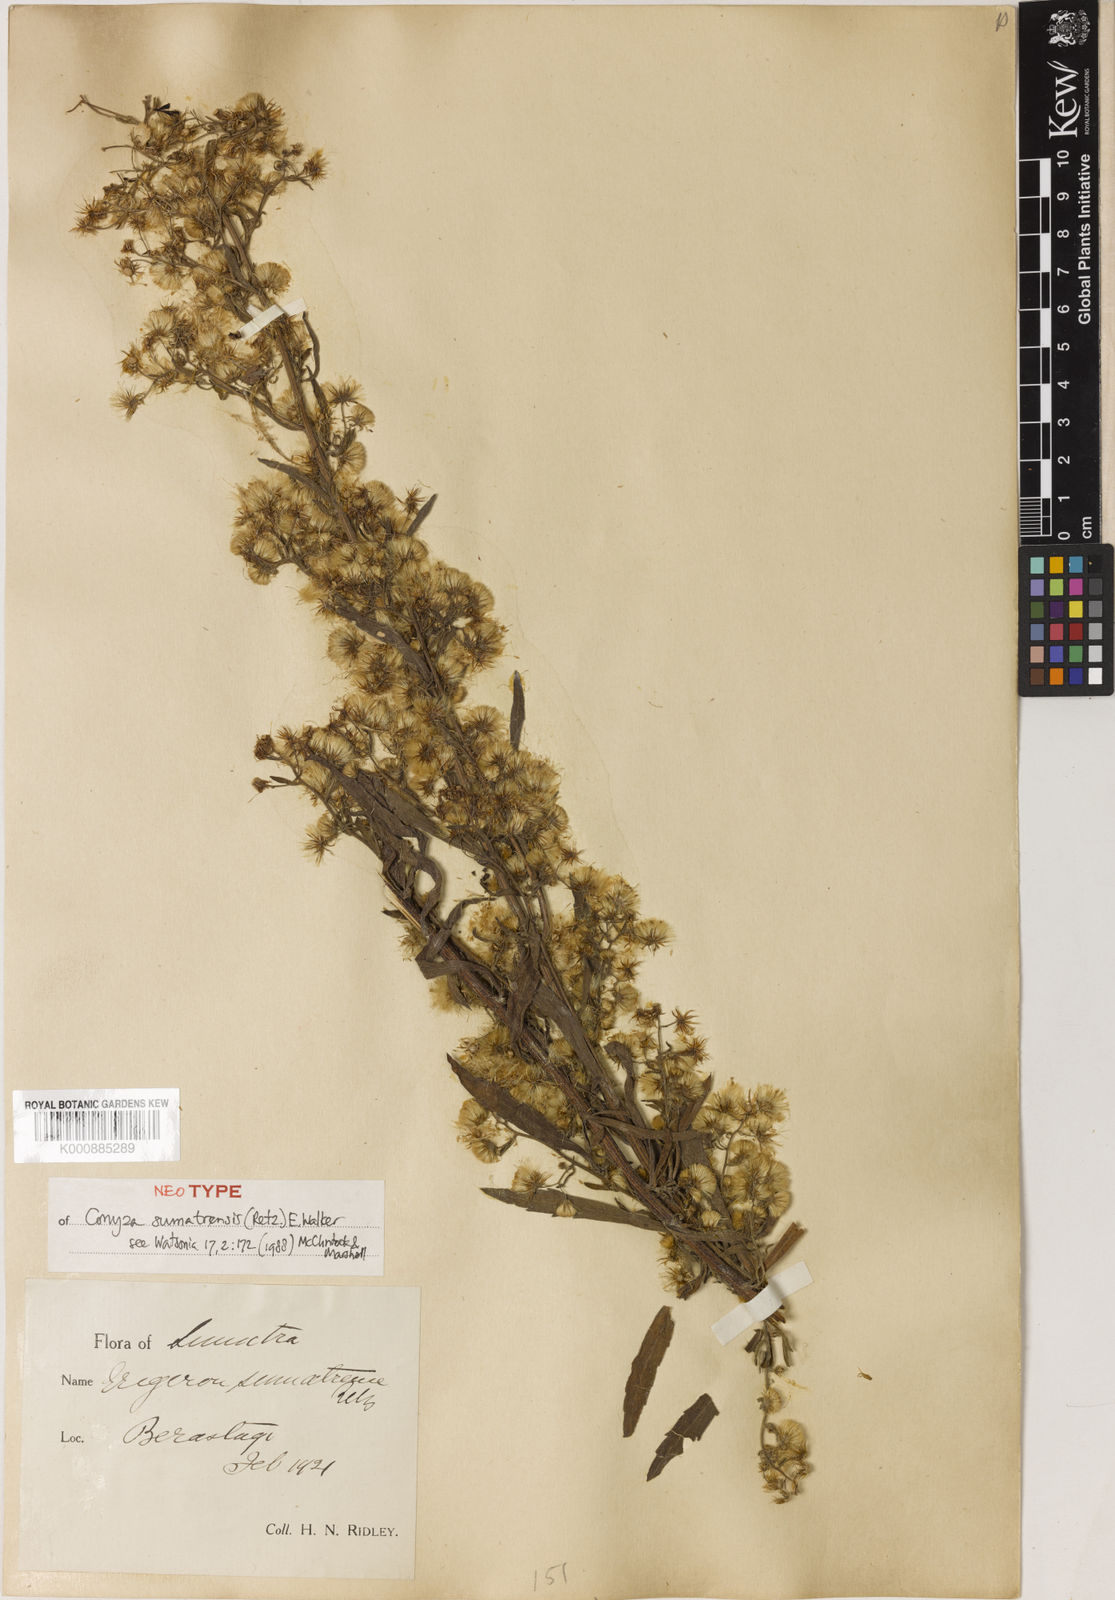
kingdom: Plantae
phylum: Tracheophyta
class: Magnoliopsida
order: Asterales
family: Asteraceae
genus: Erigeron
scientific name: Erigeron floribundus
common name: Bilbao fleabane
